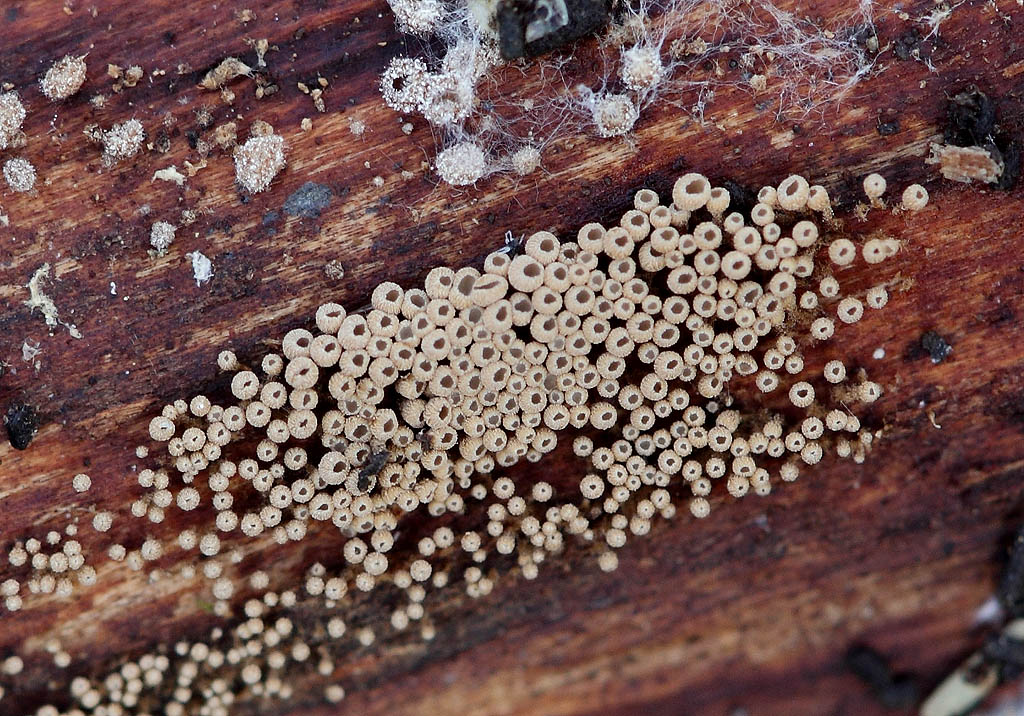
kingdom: Fungi
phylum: Basidiomycota
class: Agaricomycetes
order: Agaricales
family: Niaceae
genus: Merismodes
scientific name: Merismodes anomala
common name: almindelig læderskål
